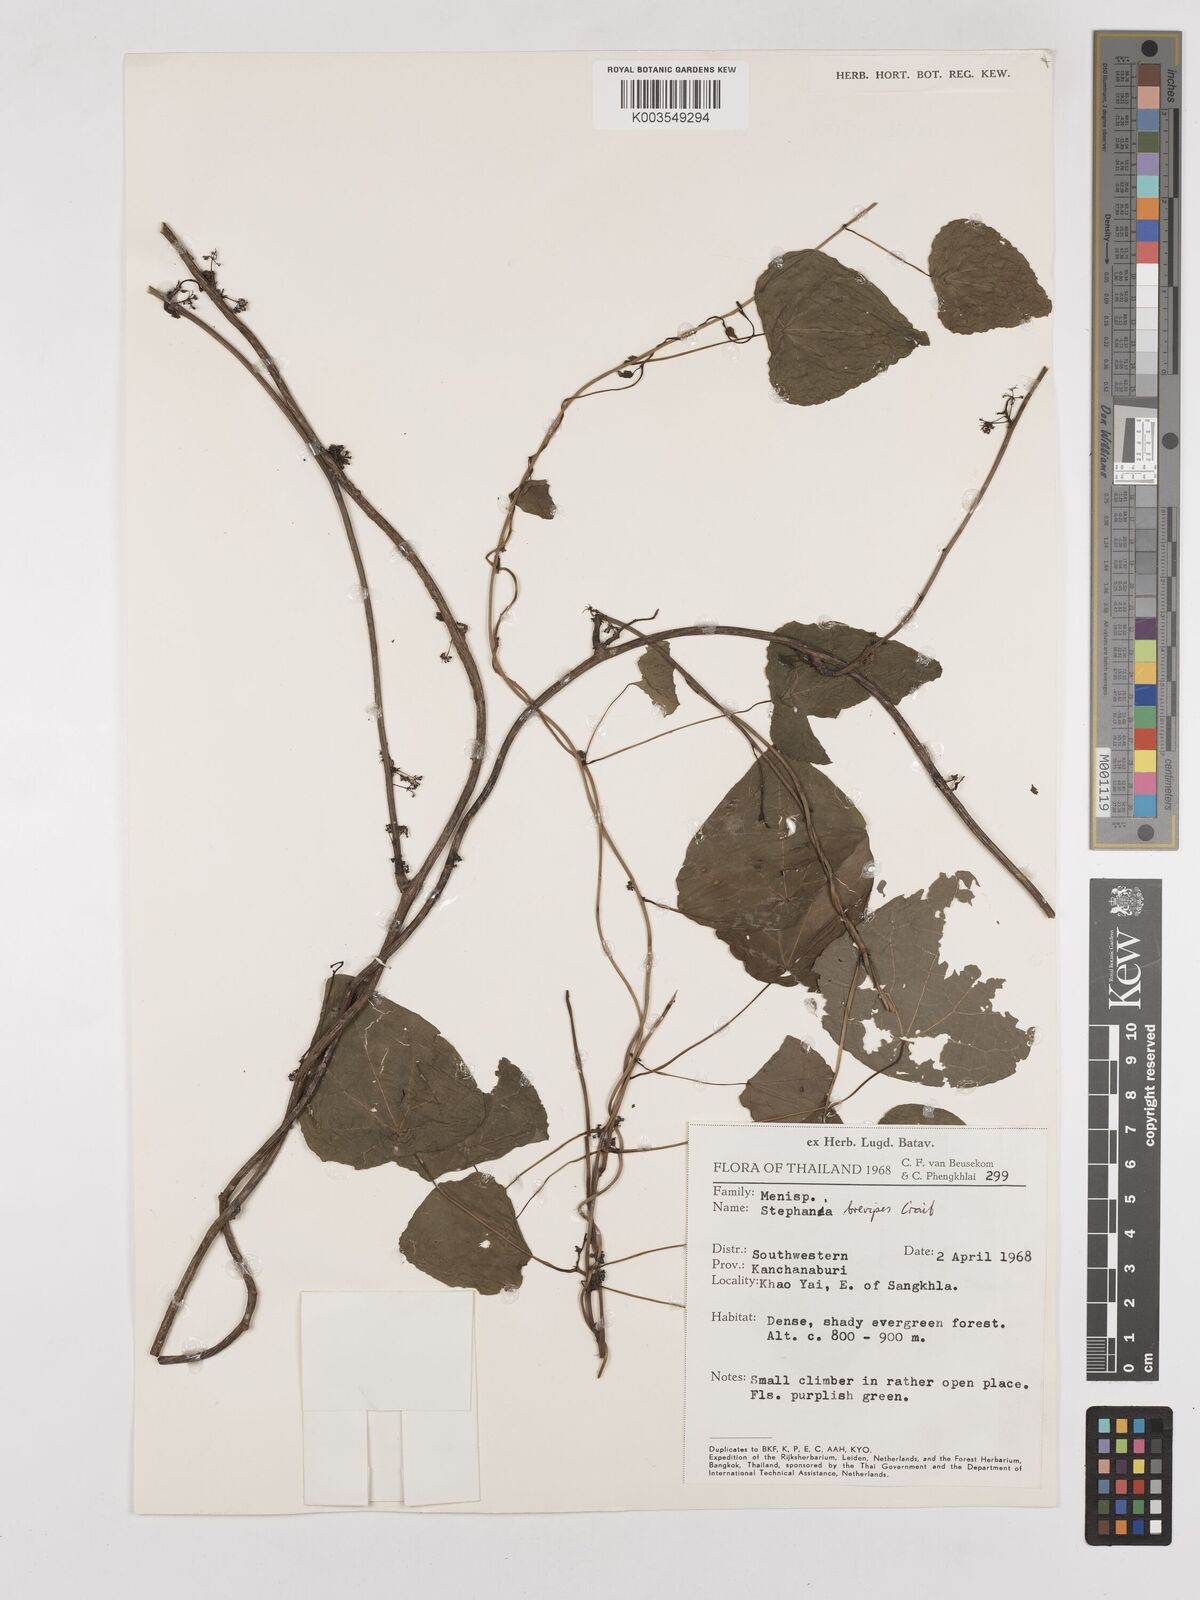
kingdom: Plantae
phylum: Tracheophyta
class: Magnoliopsida
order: Ranunculales
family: Menispermaceae
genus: Stephania
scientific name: Stephania brevipes
